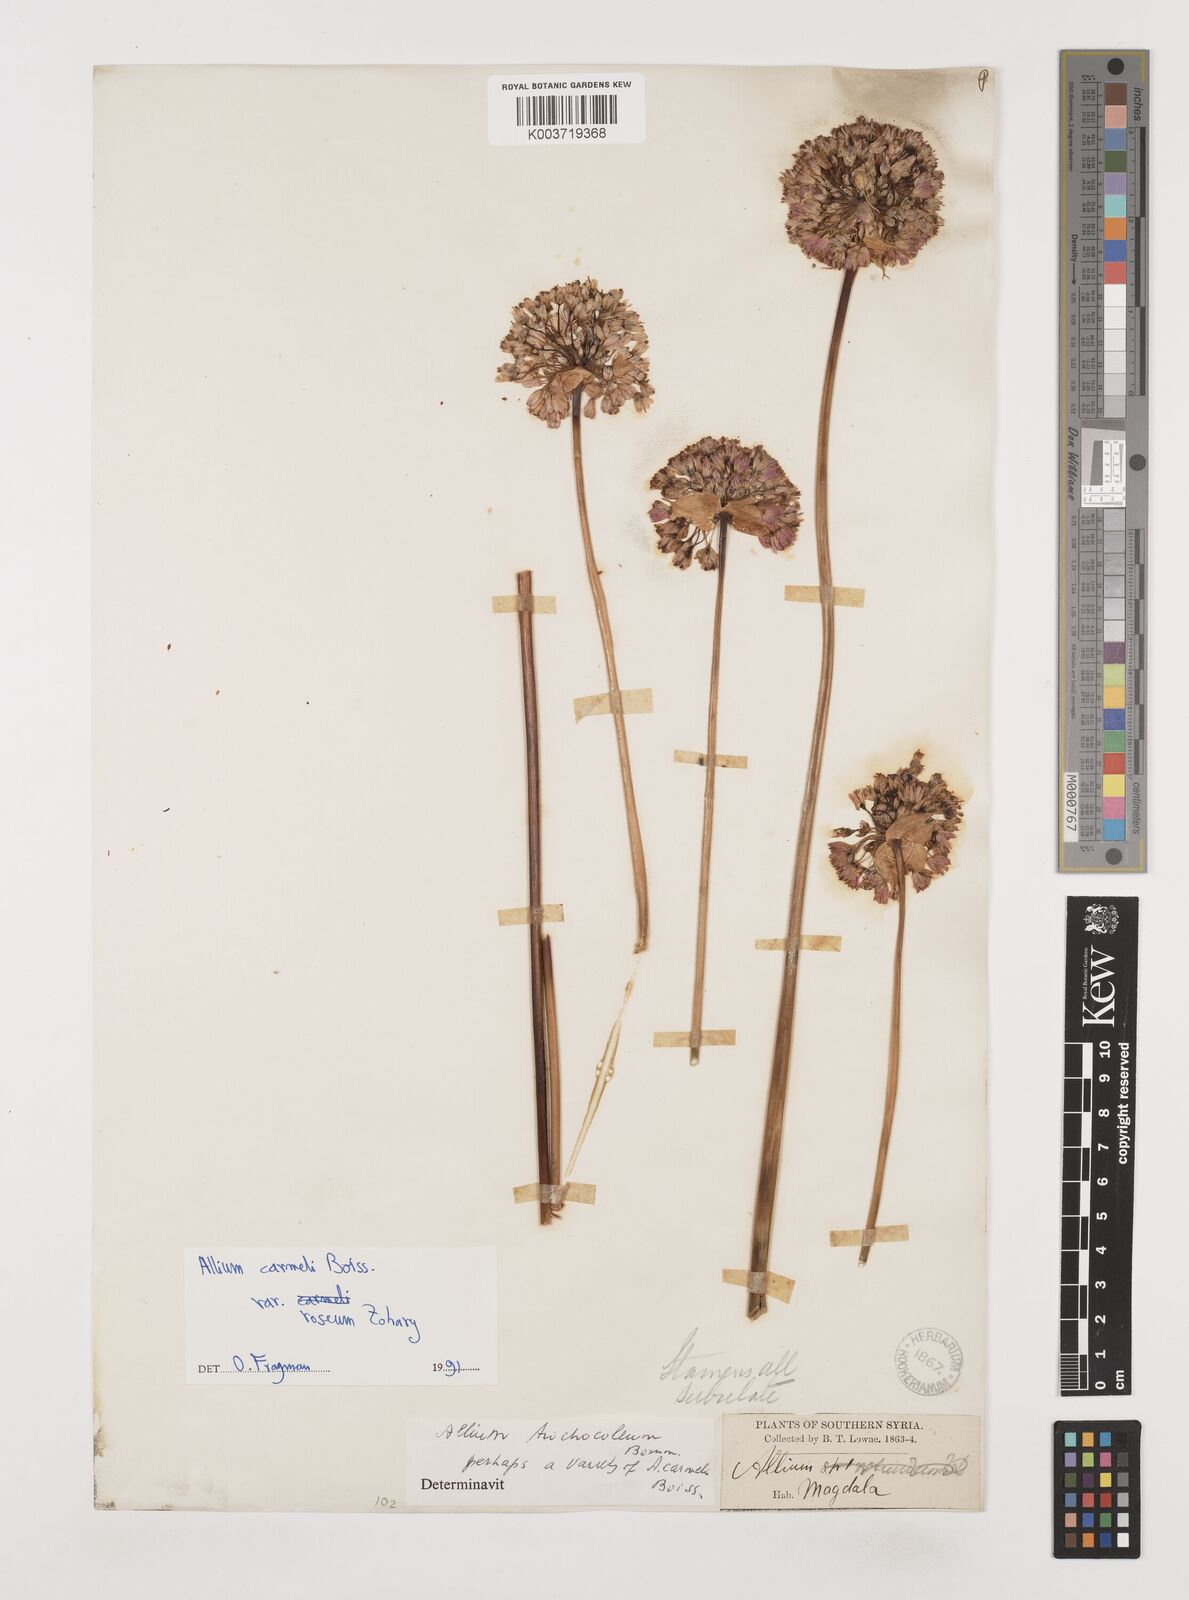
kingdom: Plantae
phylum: Tracheophyta
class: Liliopsida
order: Asparagales
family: Amaryllidaceae
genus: Allium
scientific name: Allium
